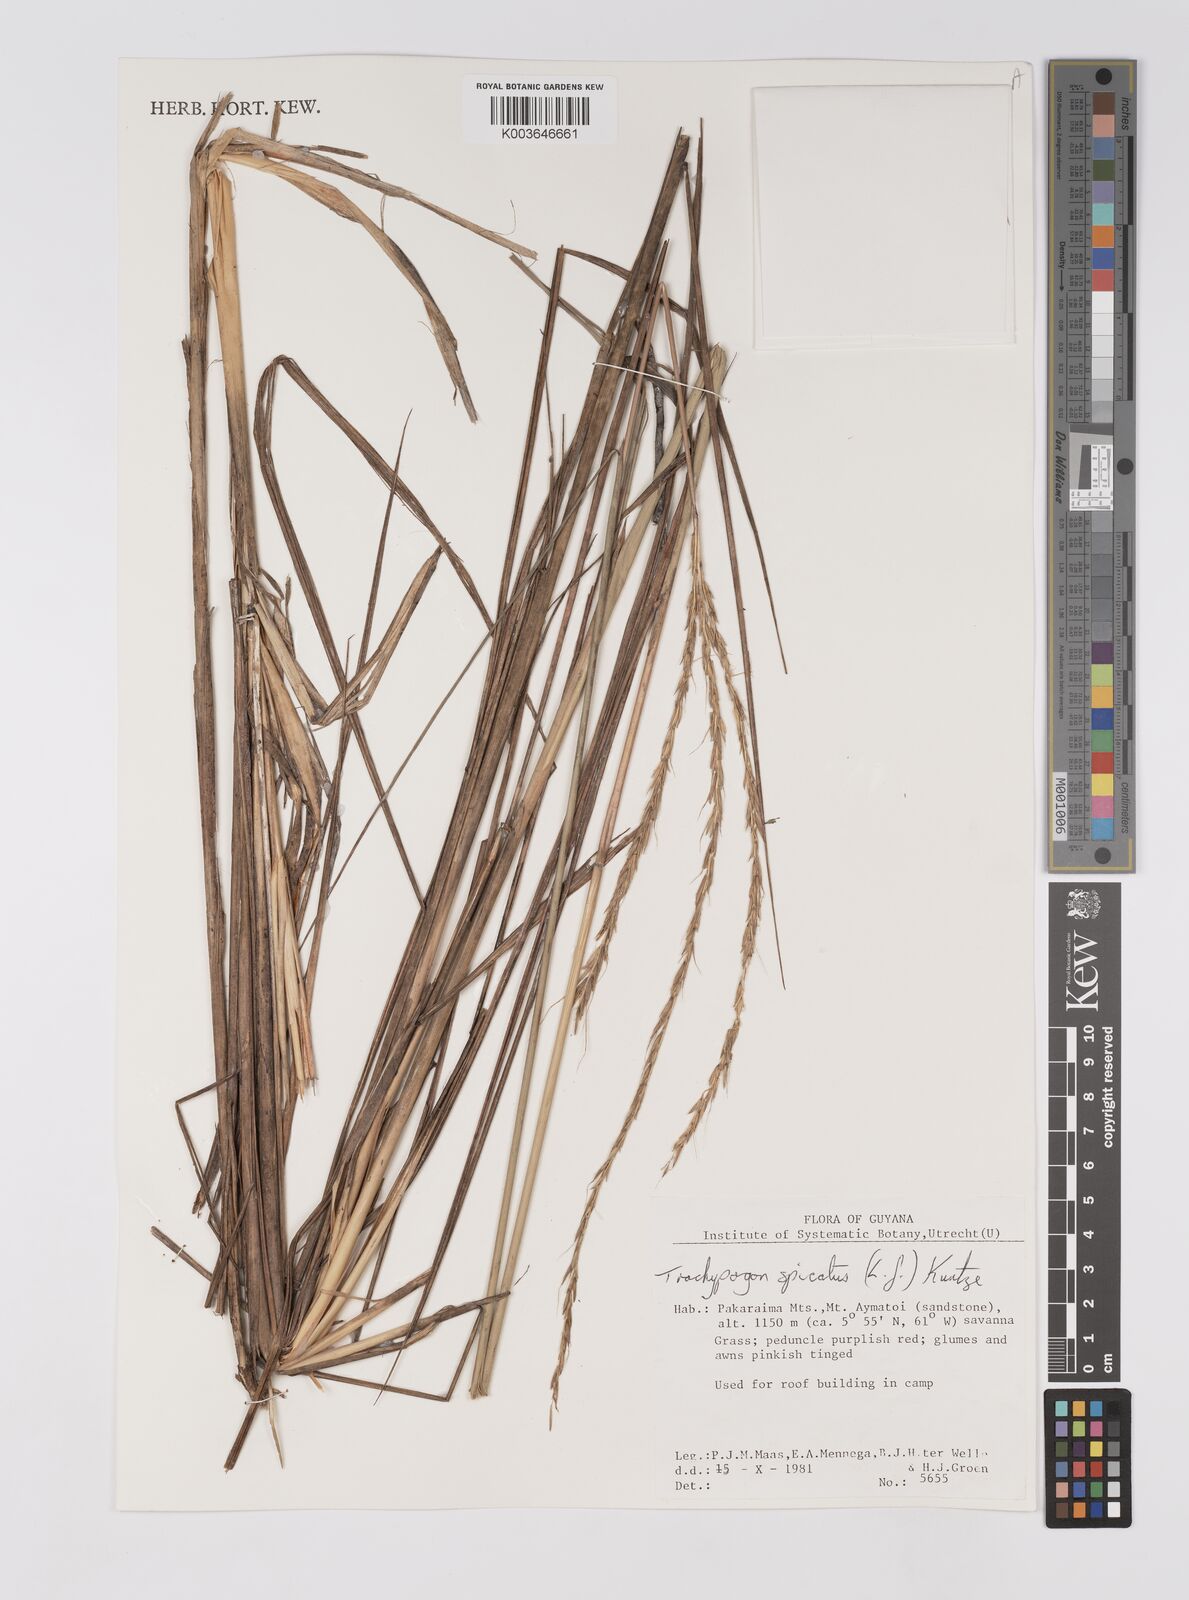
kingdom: Plantae
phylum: Tracheophyta
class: Liliopsida
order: Poales
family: Poaceae
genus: Trachypogon
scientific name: Trachypogon spicatus
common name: Crinkle-awn
